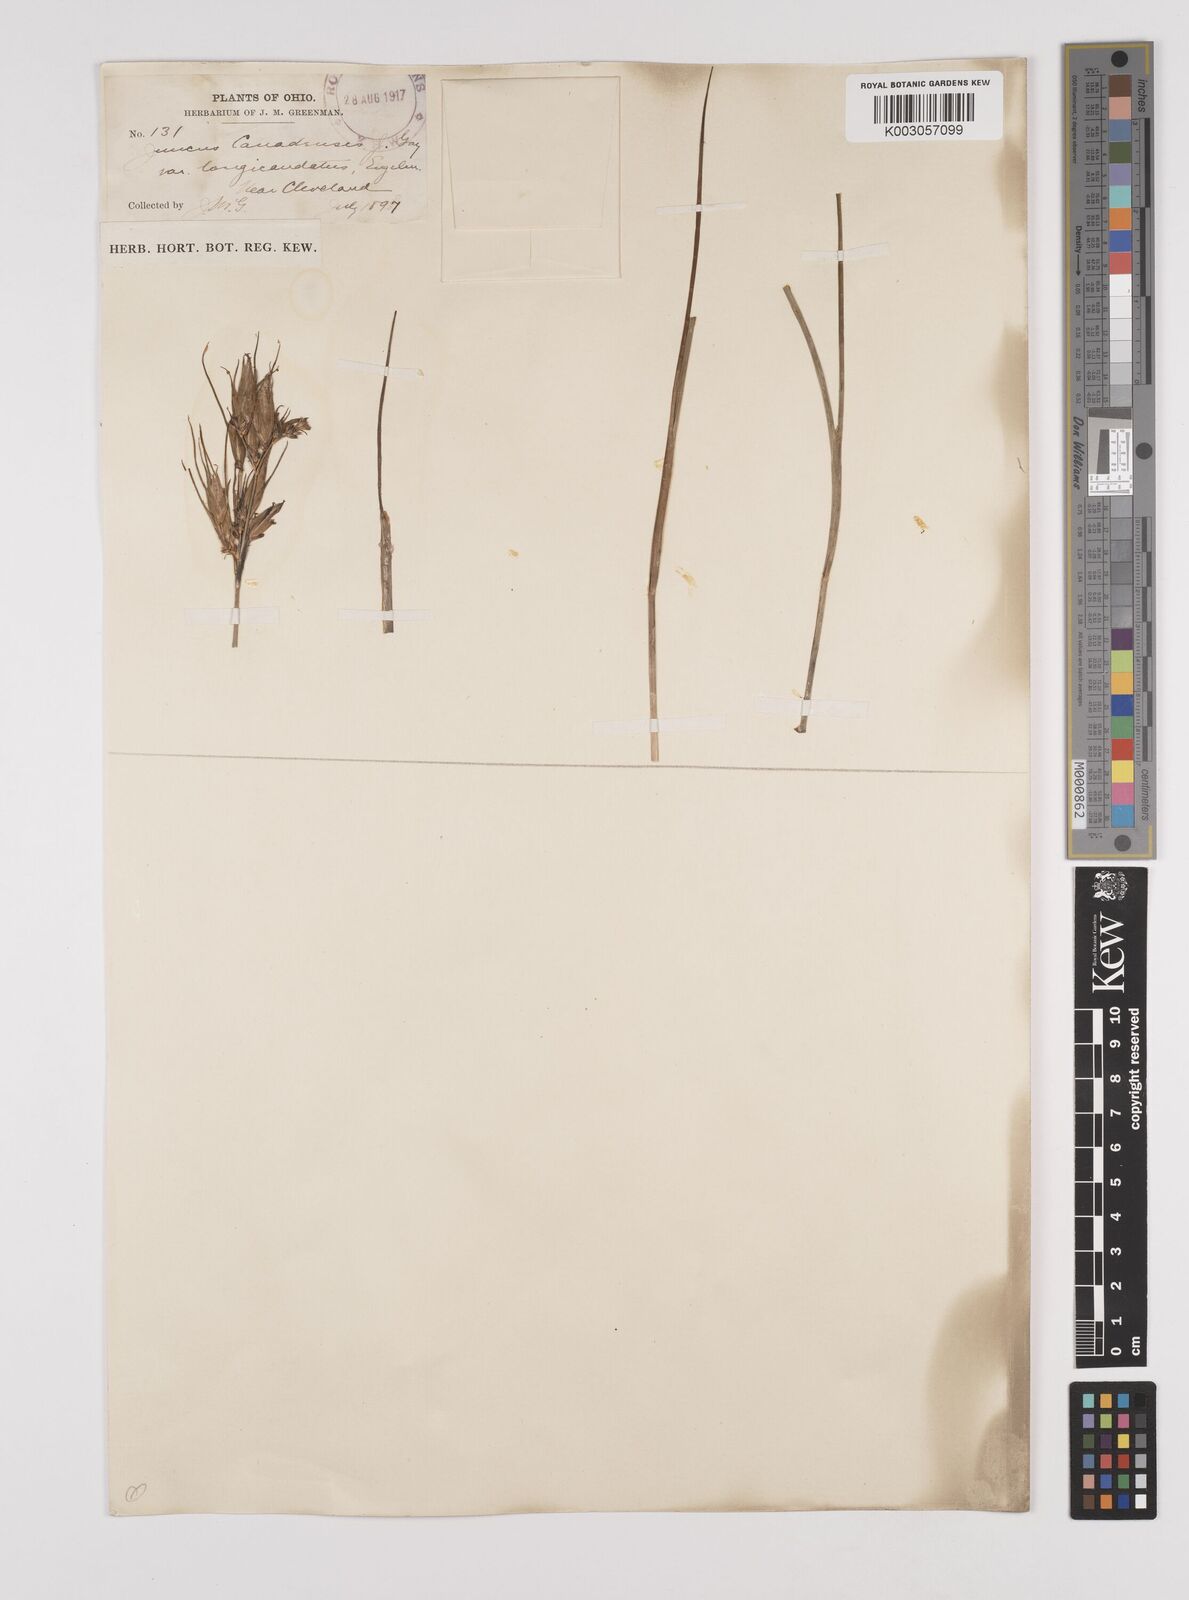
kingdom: Plantae
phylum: Tracheophyta
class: Liliopsida
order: Poales
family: Juncaceae
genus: Juncus
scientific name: Juncus canadensis
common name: Canada rush
